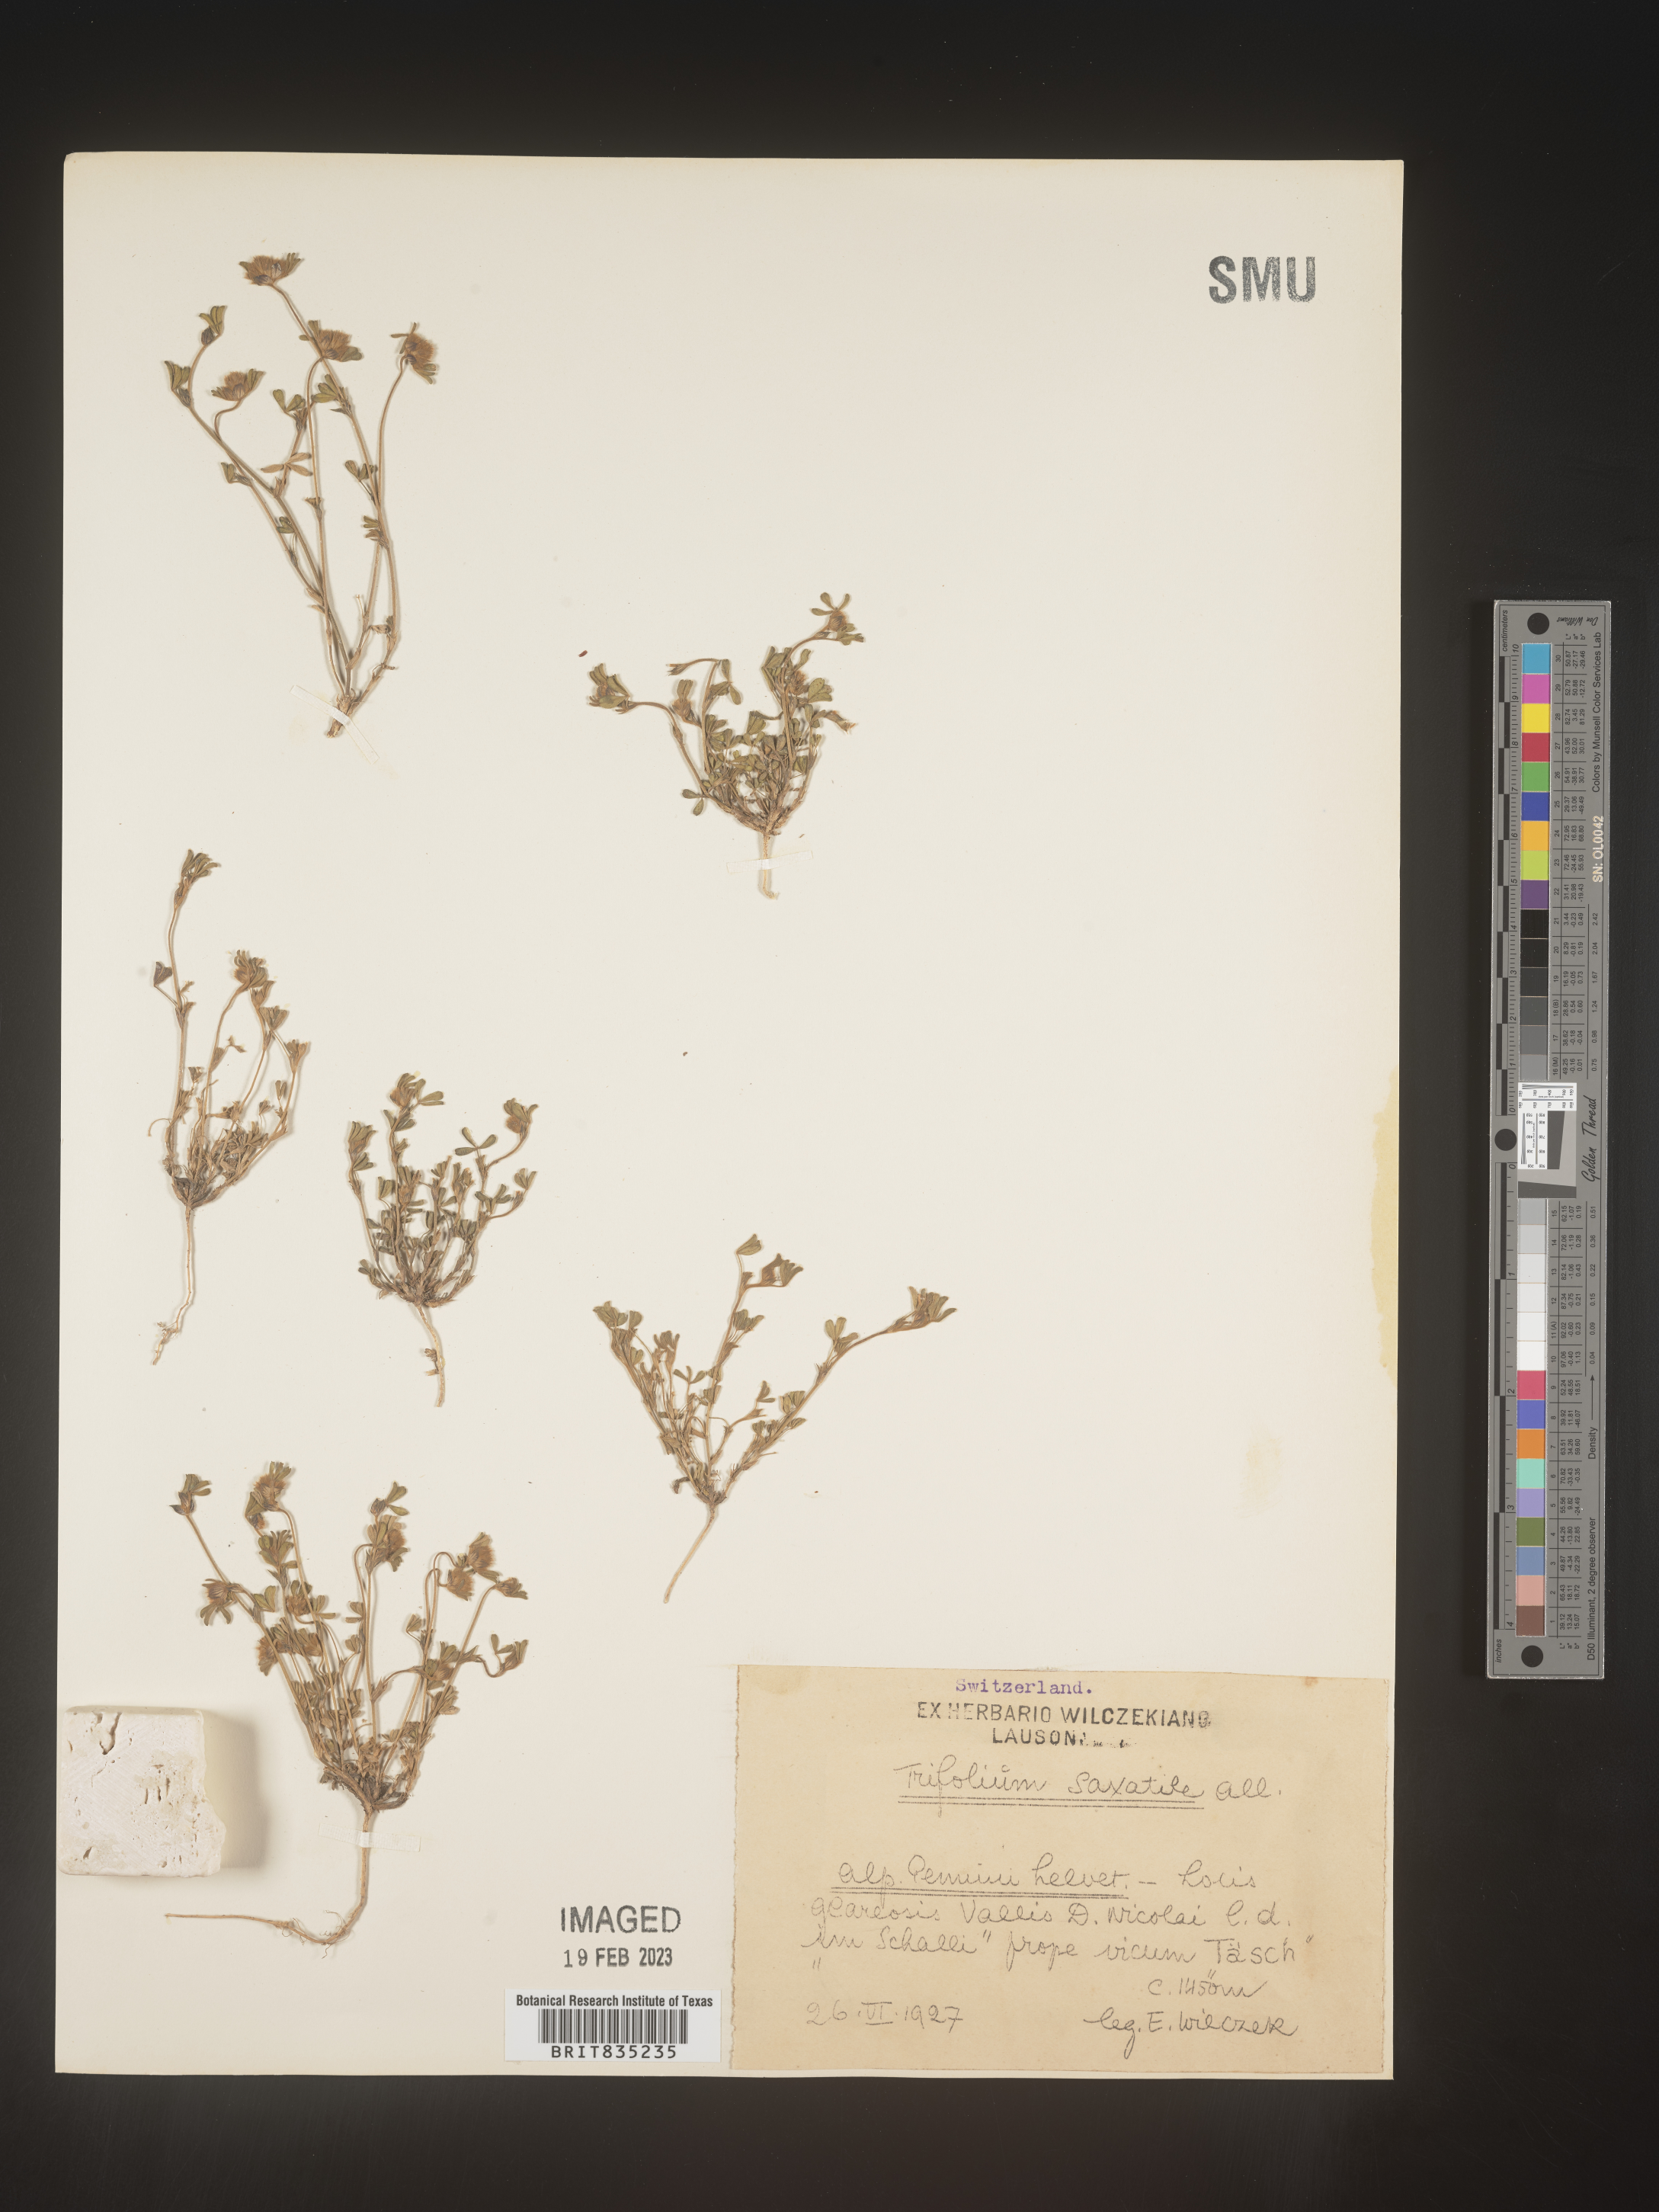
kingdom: Plantae
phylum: Tracheophyta
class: Magnoliopsida
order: Fabales
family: Fabaceae
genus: Trifolium
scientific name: Trifolium
